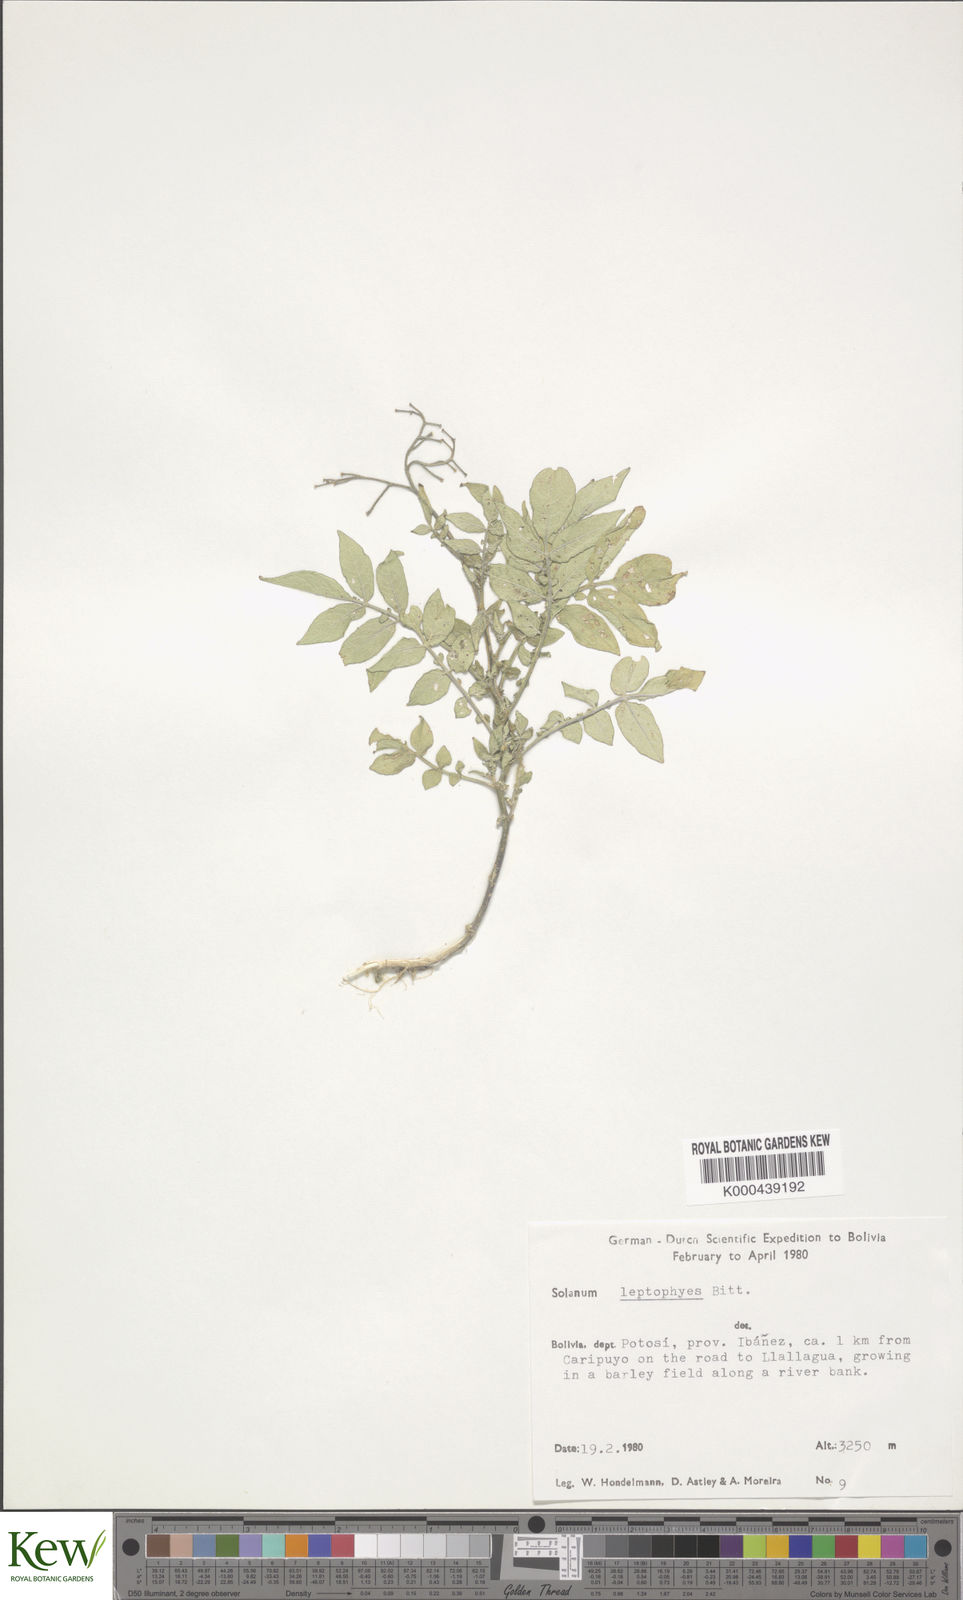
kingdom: Plantae
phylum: Tracheophyta
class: Magnoliopsida
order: Solanales
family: Solanaceae
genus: Solanum
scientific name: Solanum brevicaule
